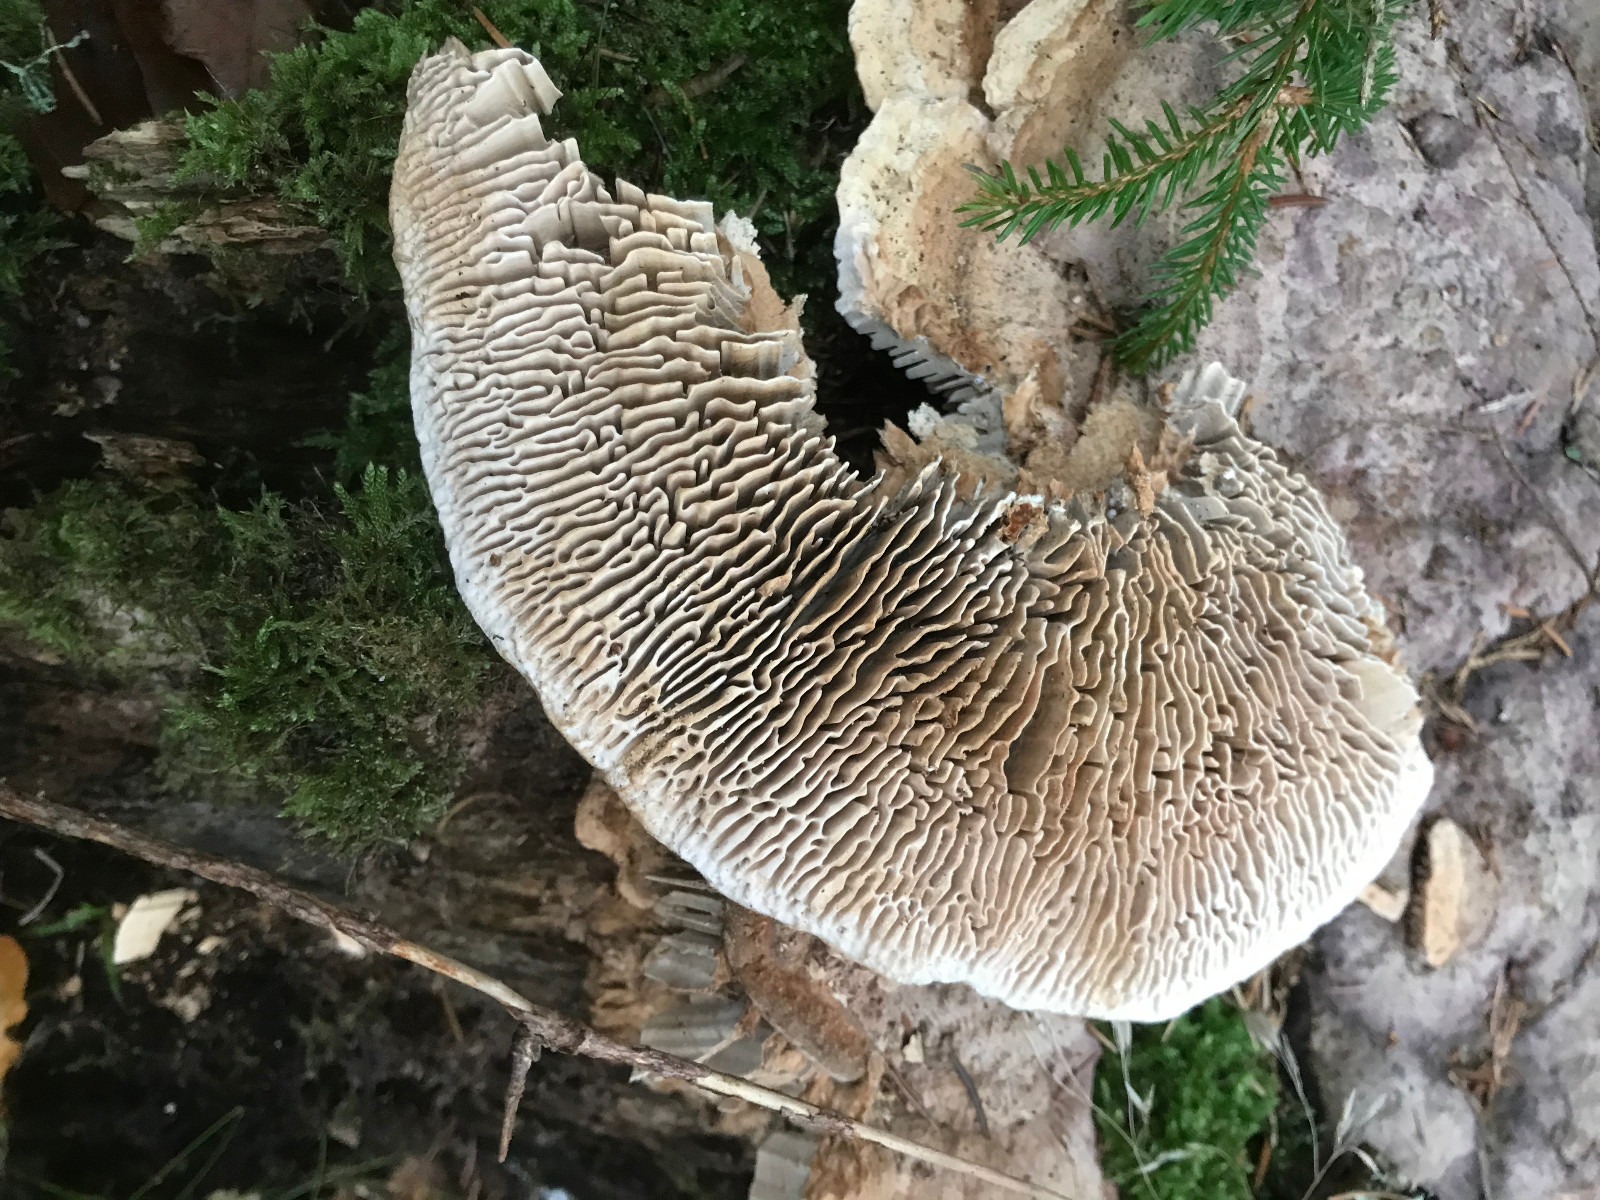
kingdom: Fungi
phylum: Basidiomycota
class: Agaricomycetes
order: Polyporales
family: Polyporaceae
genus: Lenzites
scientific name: Lenzites betulinus
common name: birke-læderporesvamp
